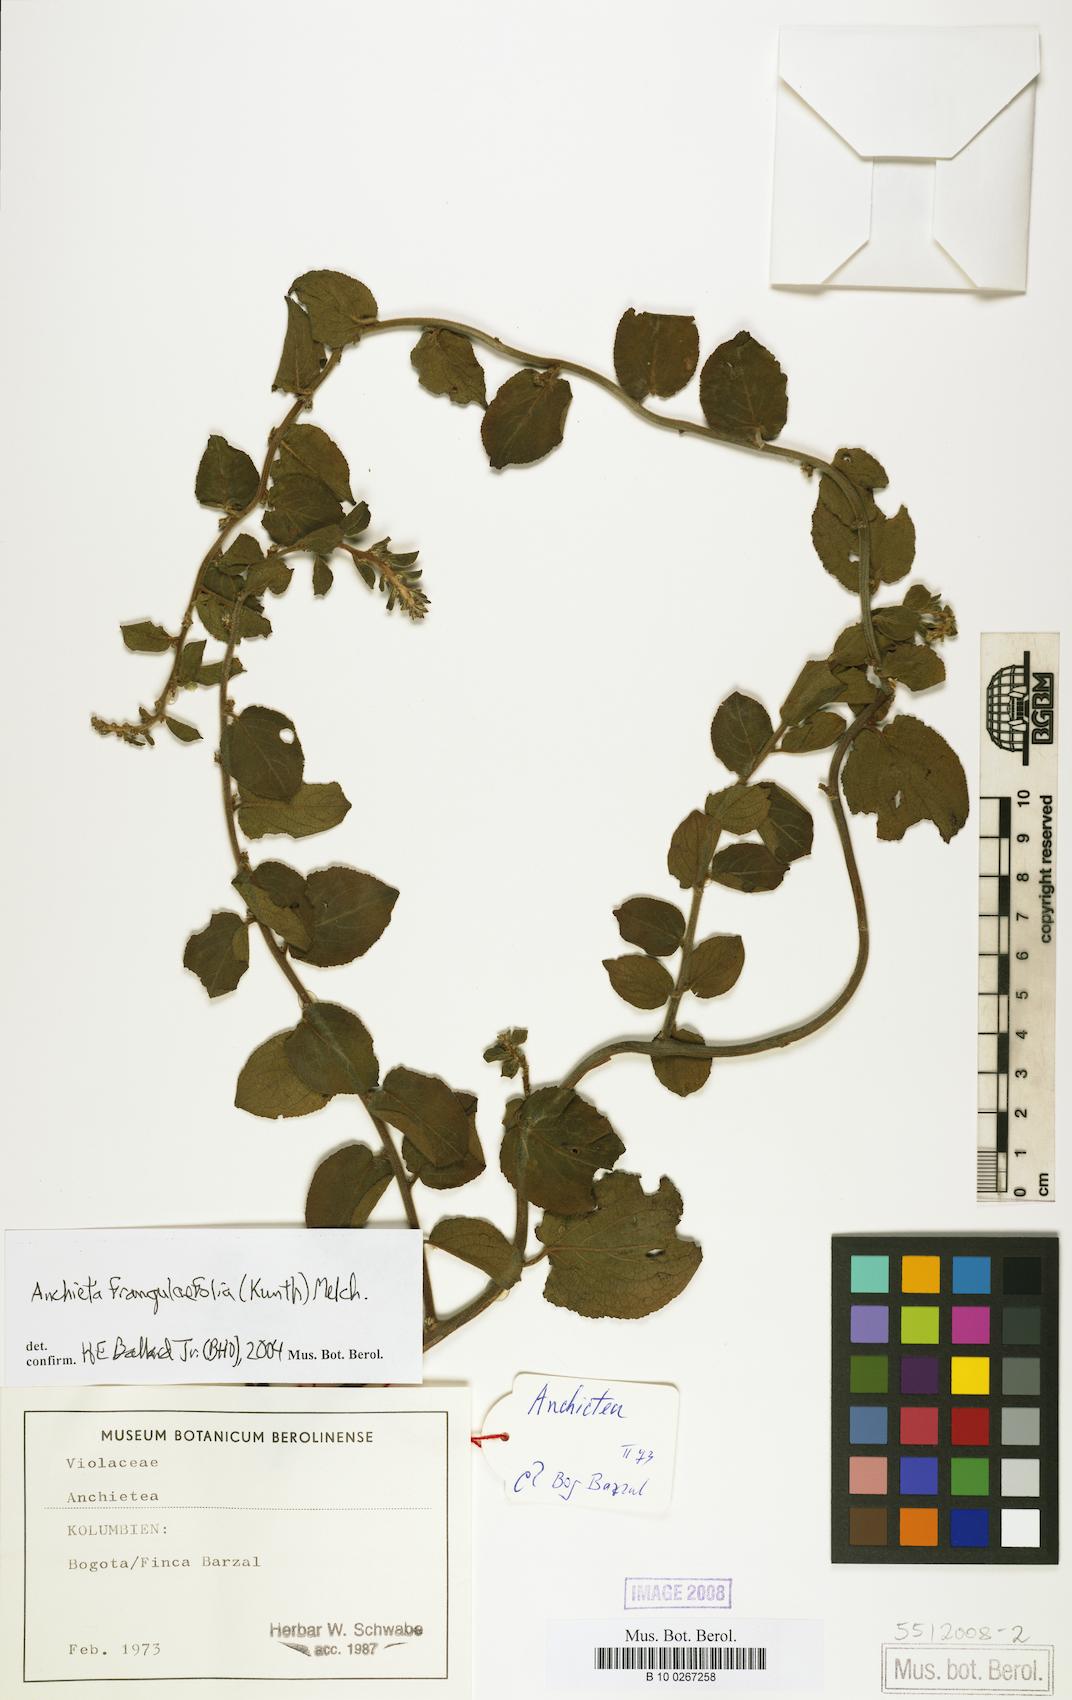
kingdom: Plantae
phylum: Tracheophyta
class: Magnoliopsida
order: Malpighiales
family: Violaceae
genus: Anchietea
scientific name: Anchietea frangulifolia
